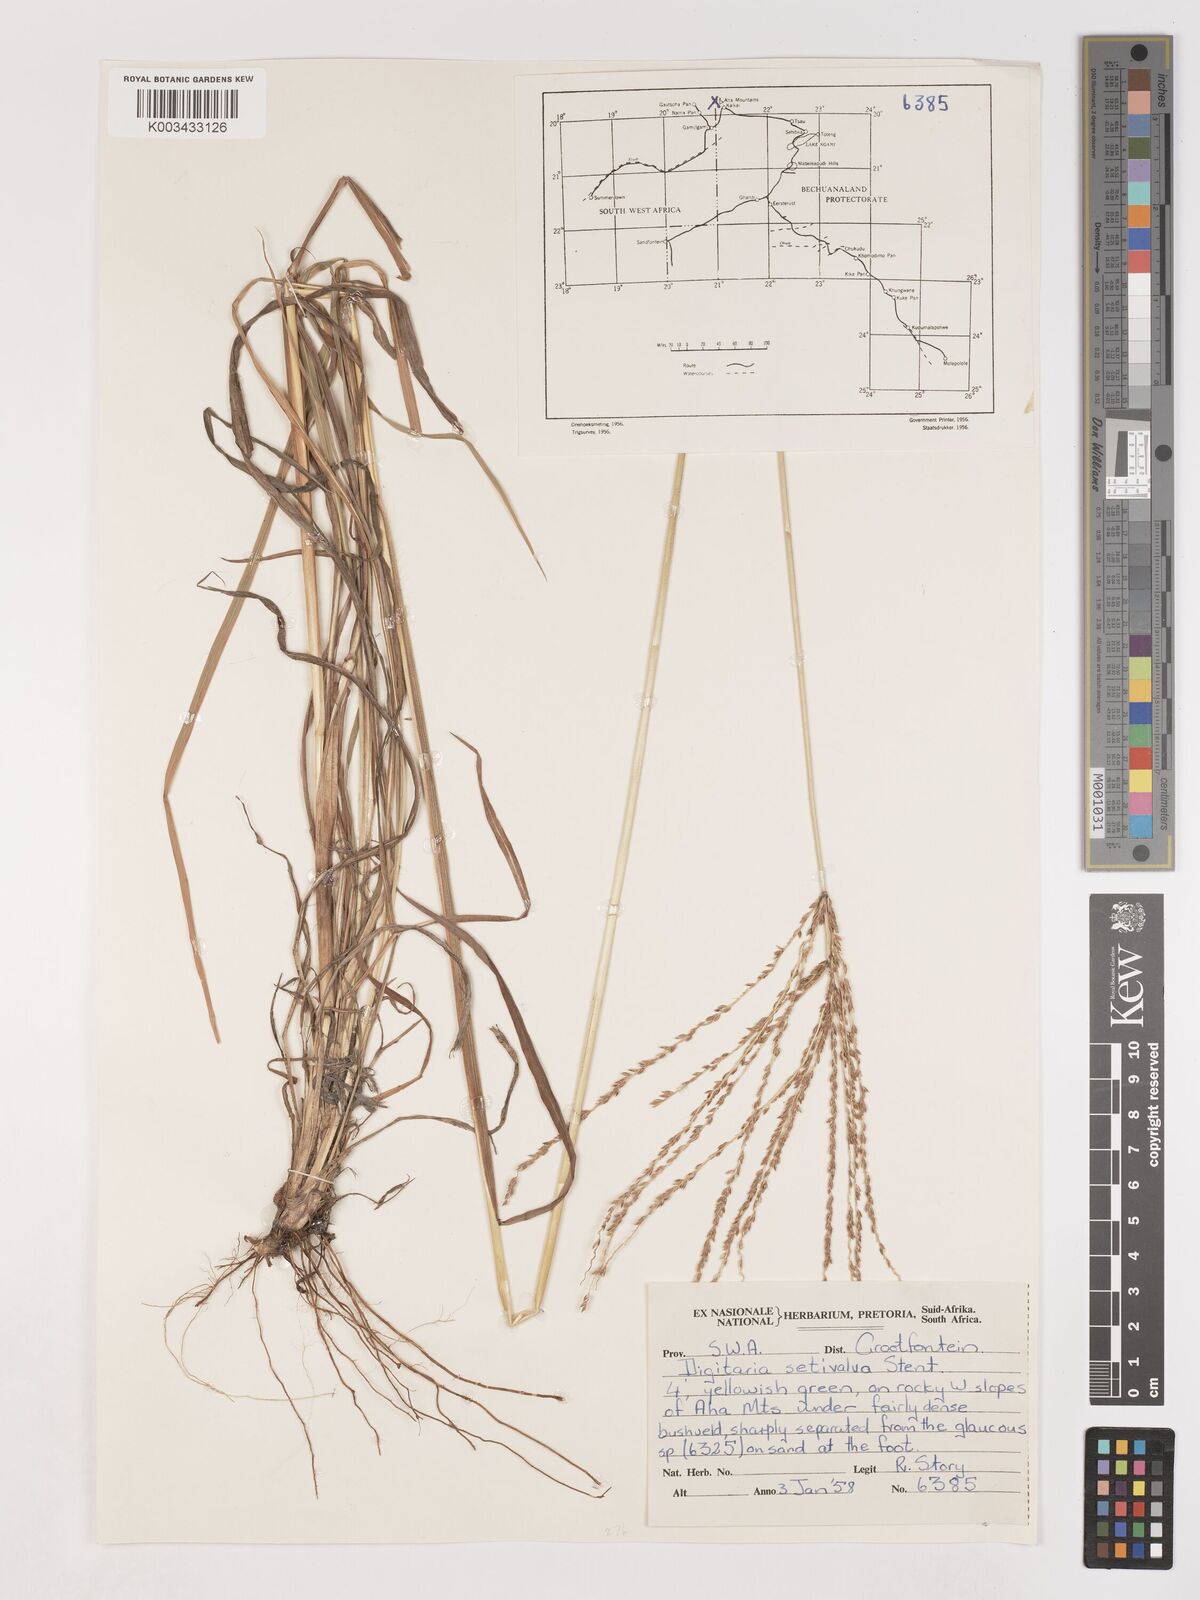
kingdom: Plantae
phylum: Tracheophyta
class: Liliopsida
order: Poales
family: Poaceae
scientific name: Poaceae
